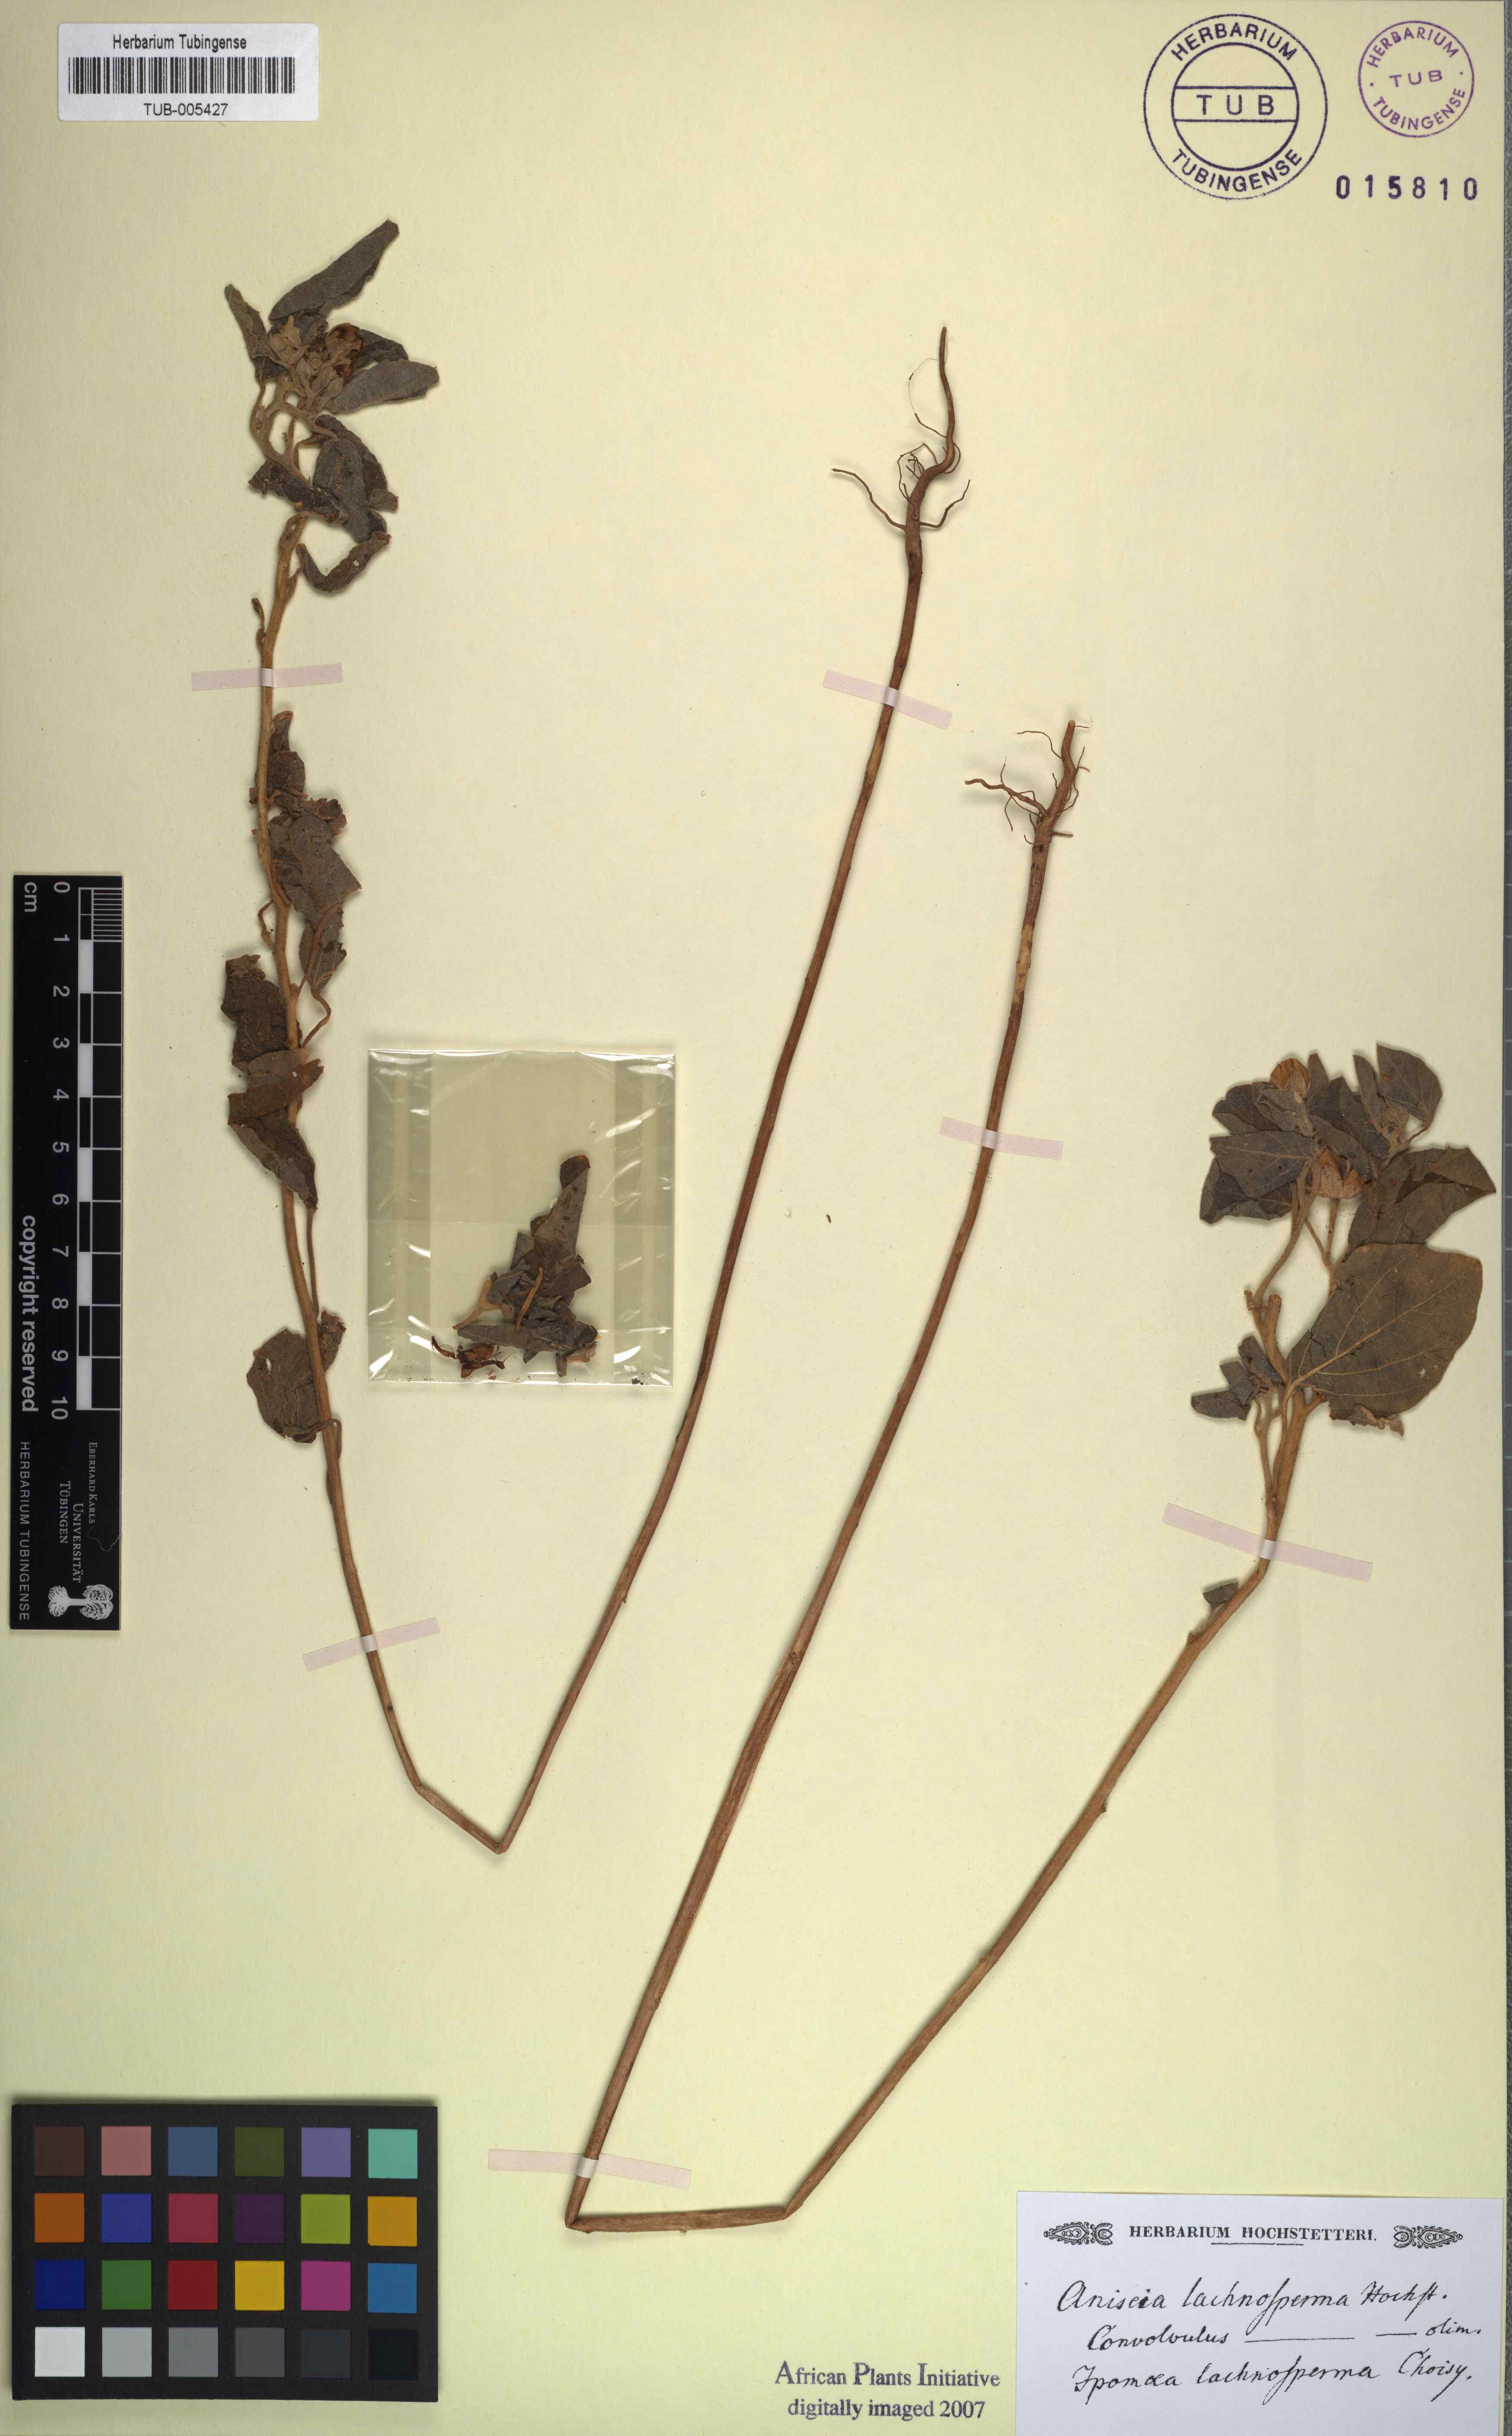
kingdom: Plantae
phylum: Tracheophyta
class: Magnoliopsida
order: Solanales
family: Convolvulaceae
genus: Aniseia
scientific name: Aniseia
